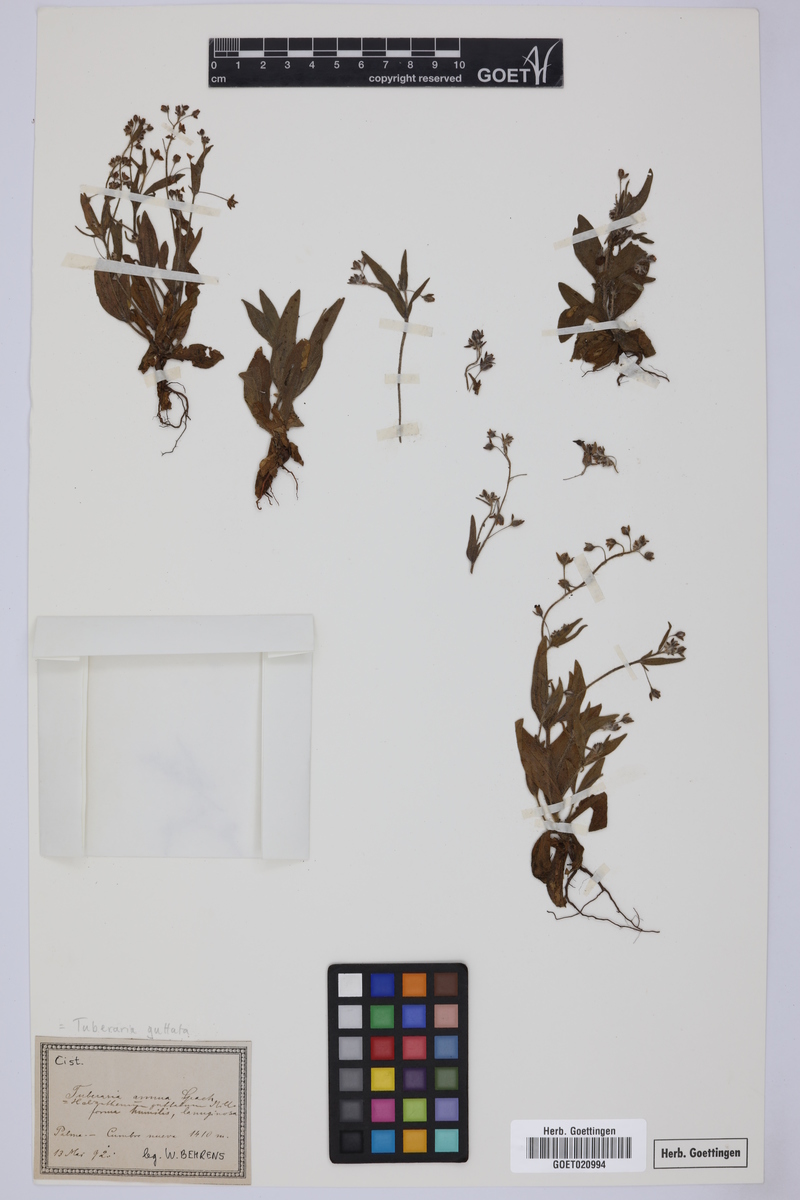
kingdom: Plantae
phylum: Tracheophyta
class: Magnoliopsida
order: Malvales
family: Cistaceae
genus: Tuberaria
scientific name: Tuberaria guttata
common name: Spotted rock-rose
